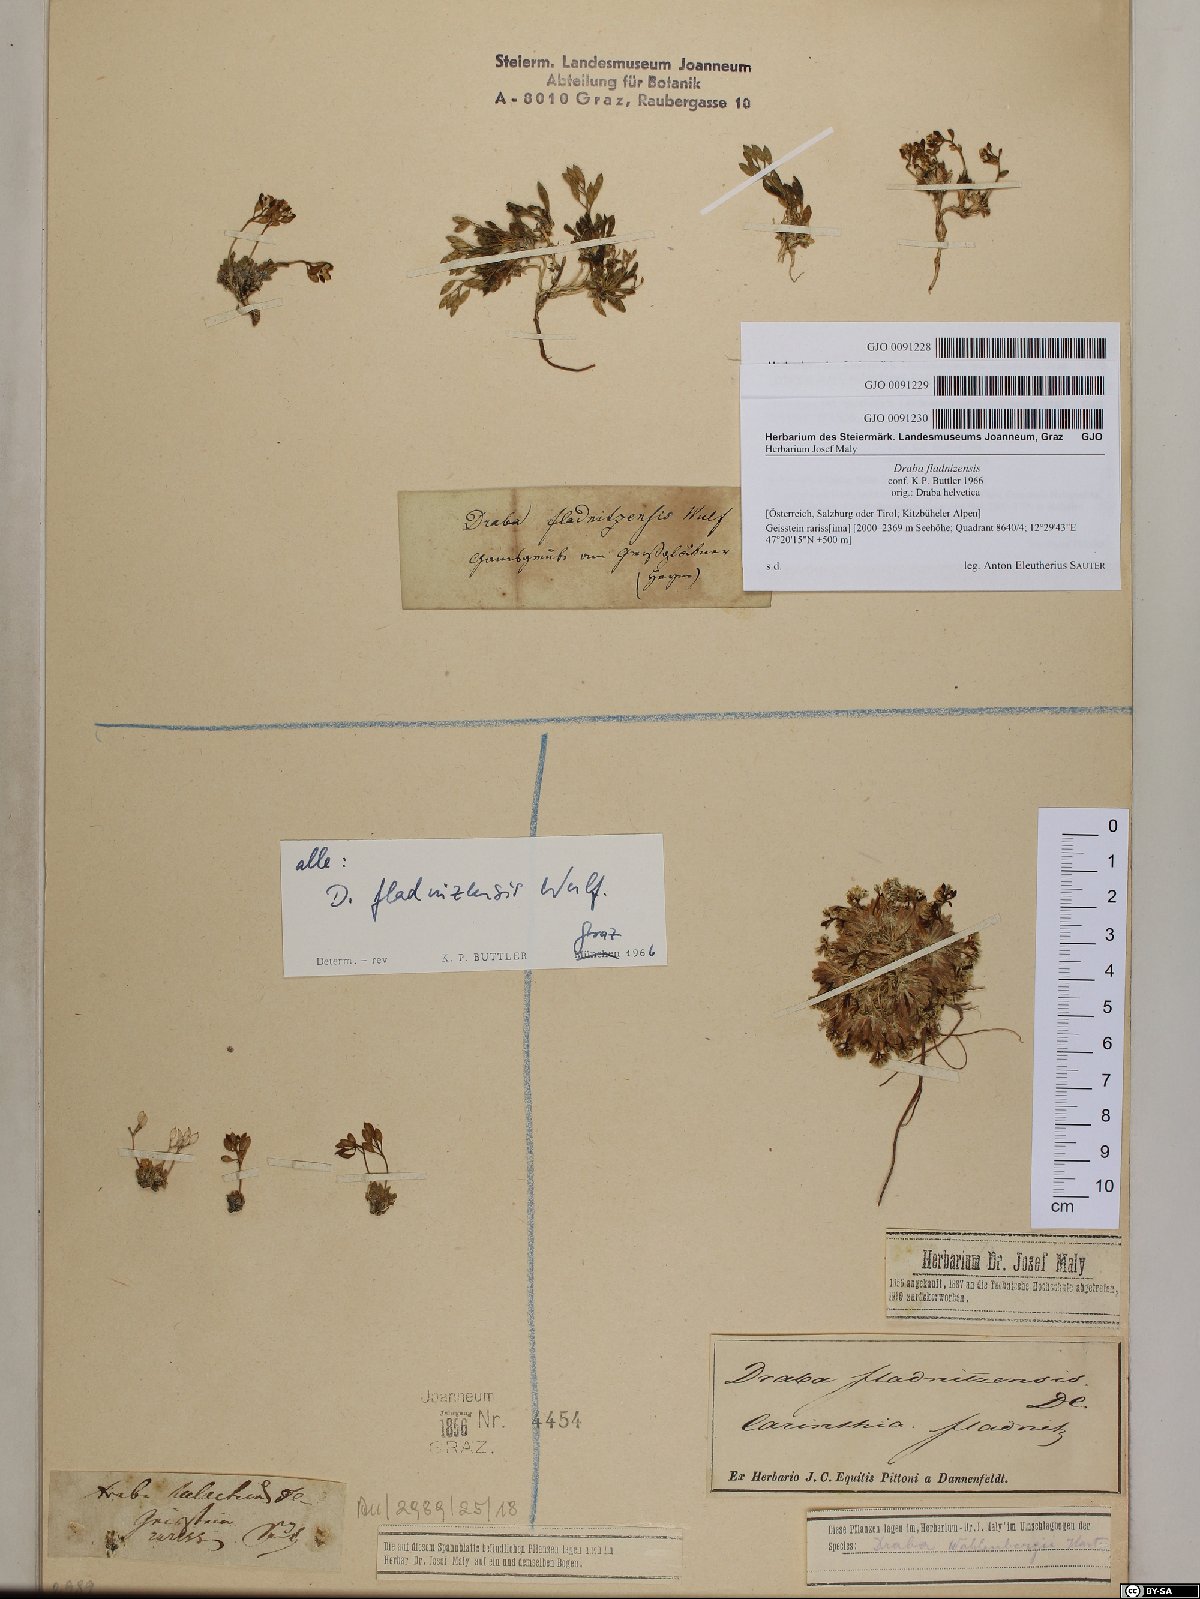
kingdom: Plantae
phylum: Tracheophyta
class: Magnoliopsida
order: Brassicales
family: Brassicaceae
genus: Draba
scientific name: Draba fladnizensis
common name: Austrian draba
